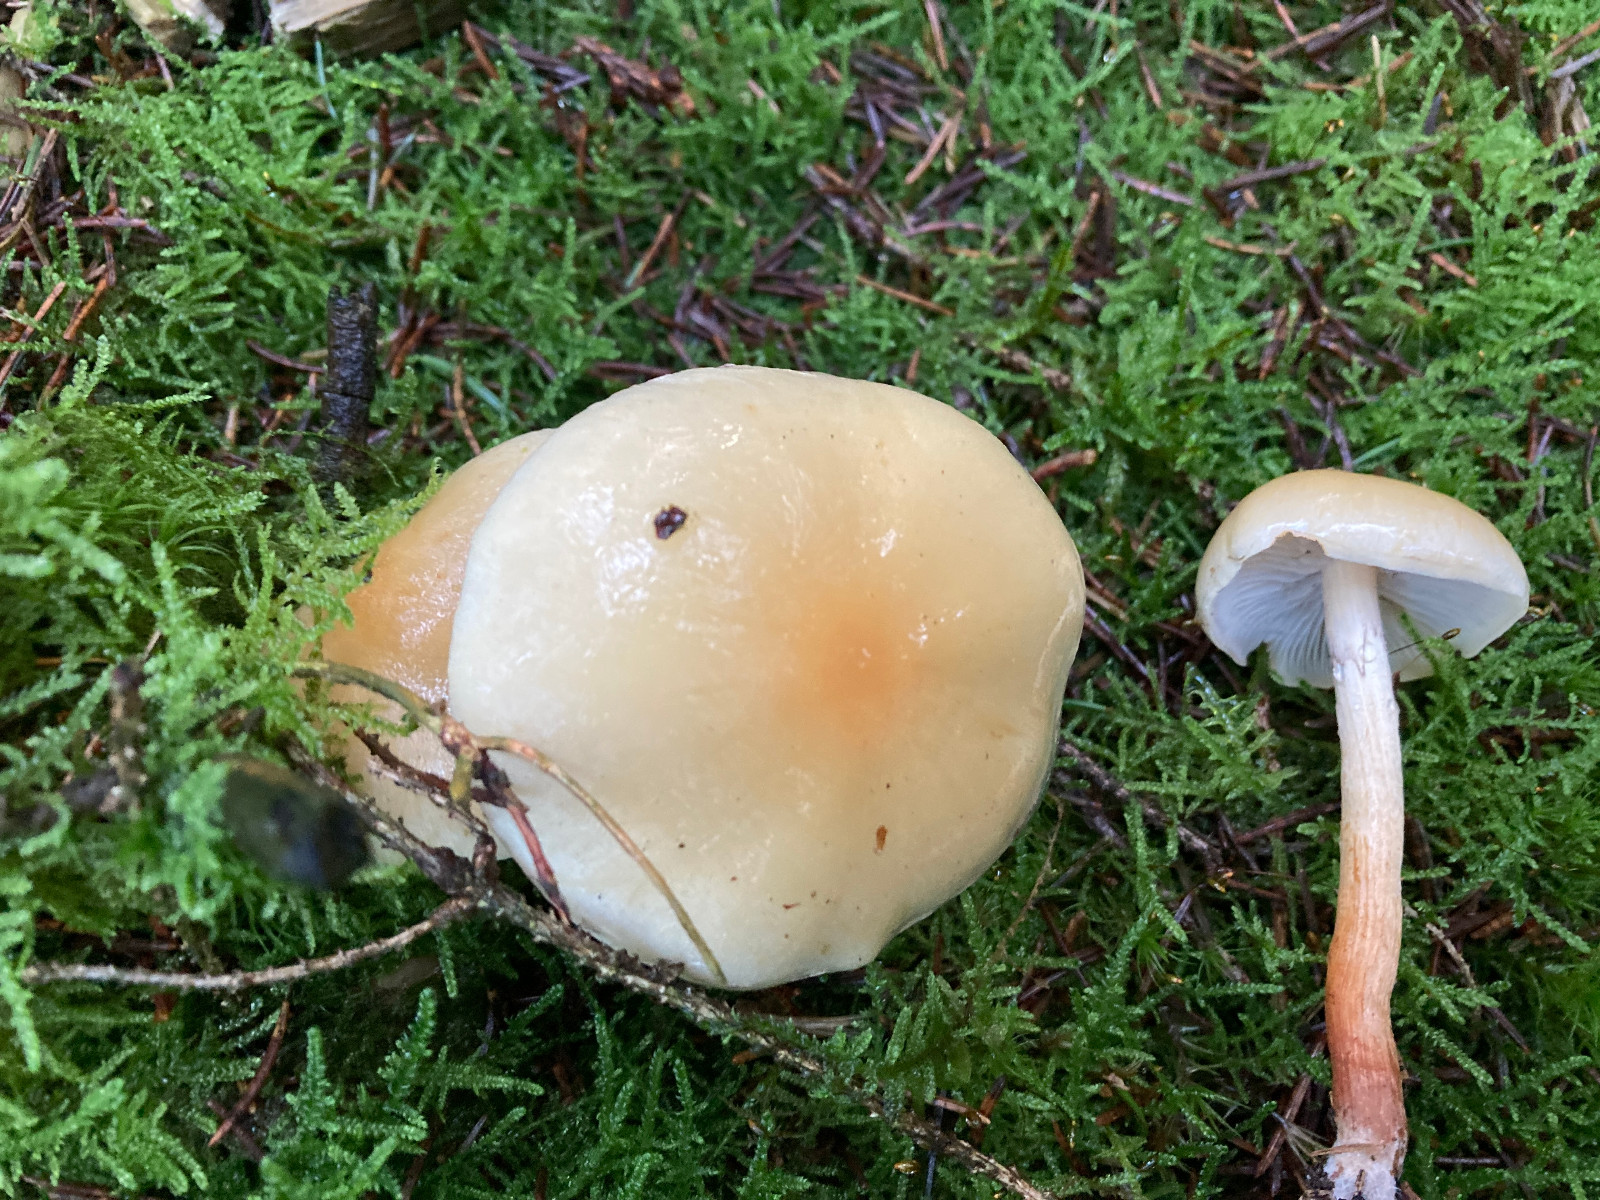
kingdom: Fungi
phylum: Basidiomycota
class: Agaricomycetes
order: Agaricales
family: Strophariaceae
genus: Hypholoma
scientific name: Hypholoma capnoides
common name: gran-svovlhat
